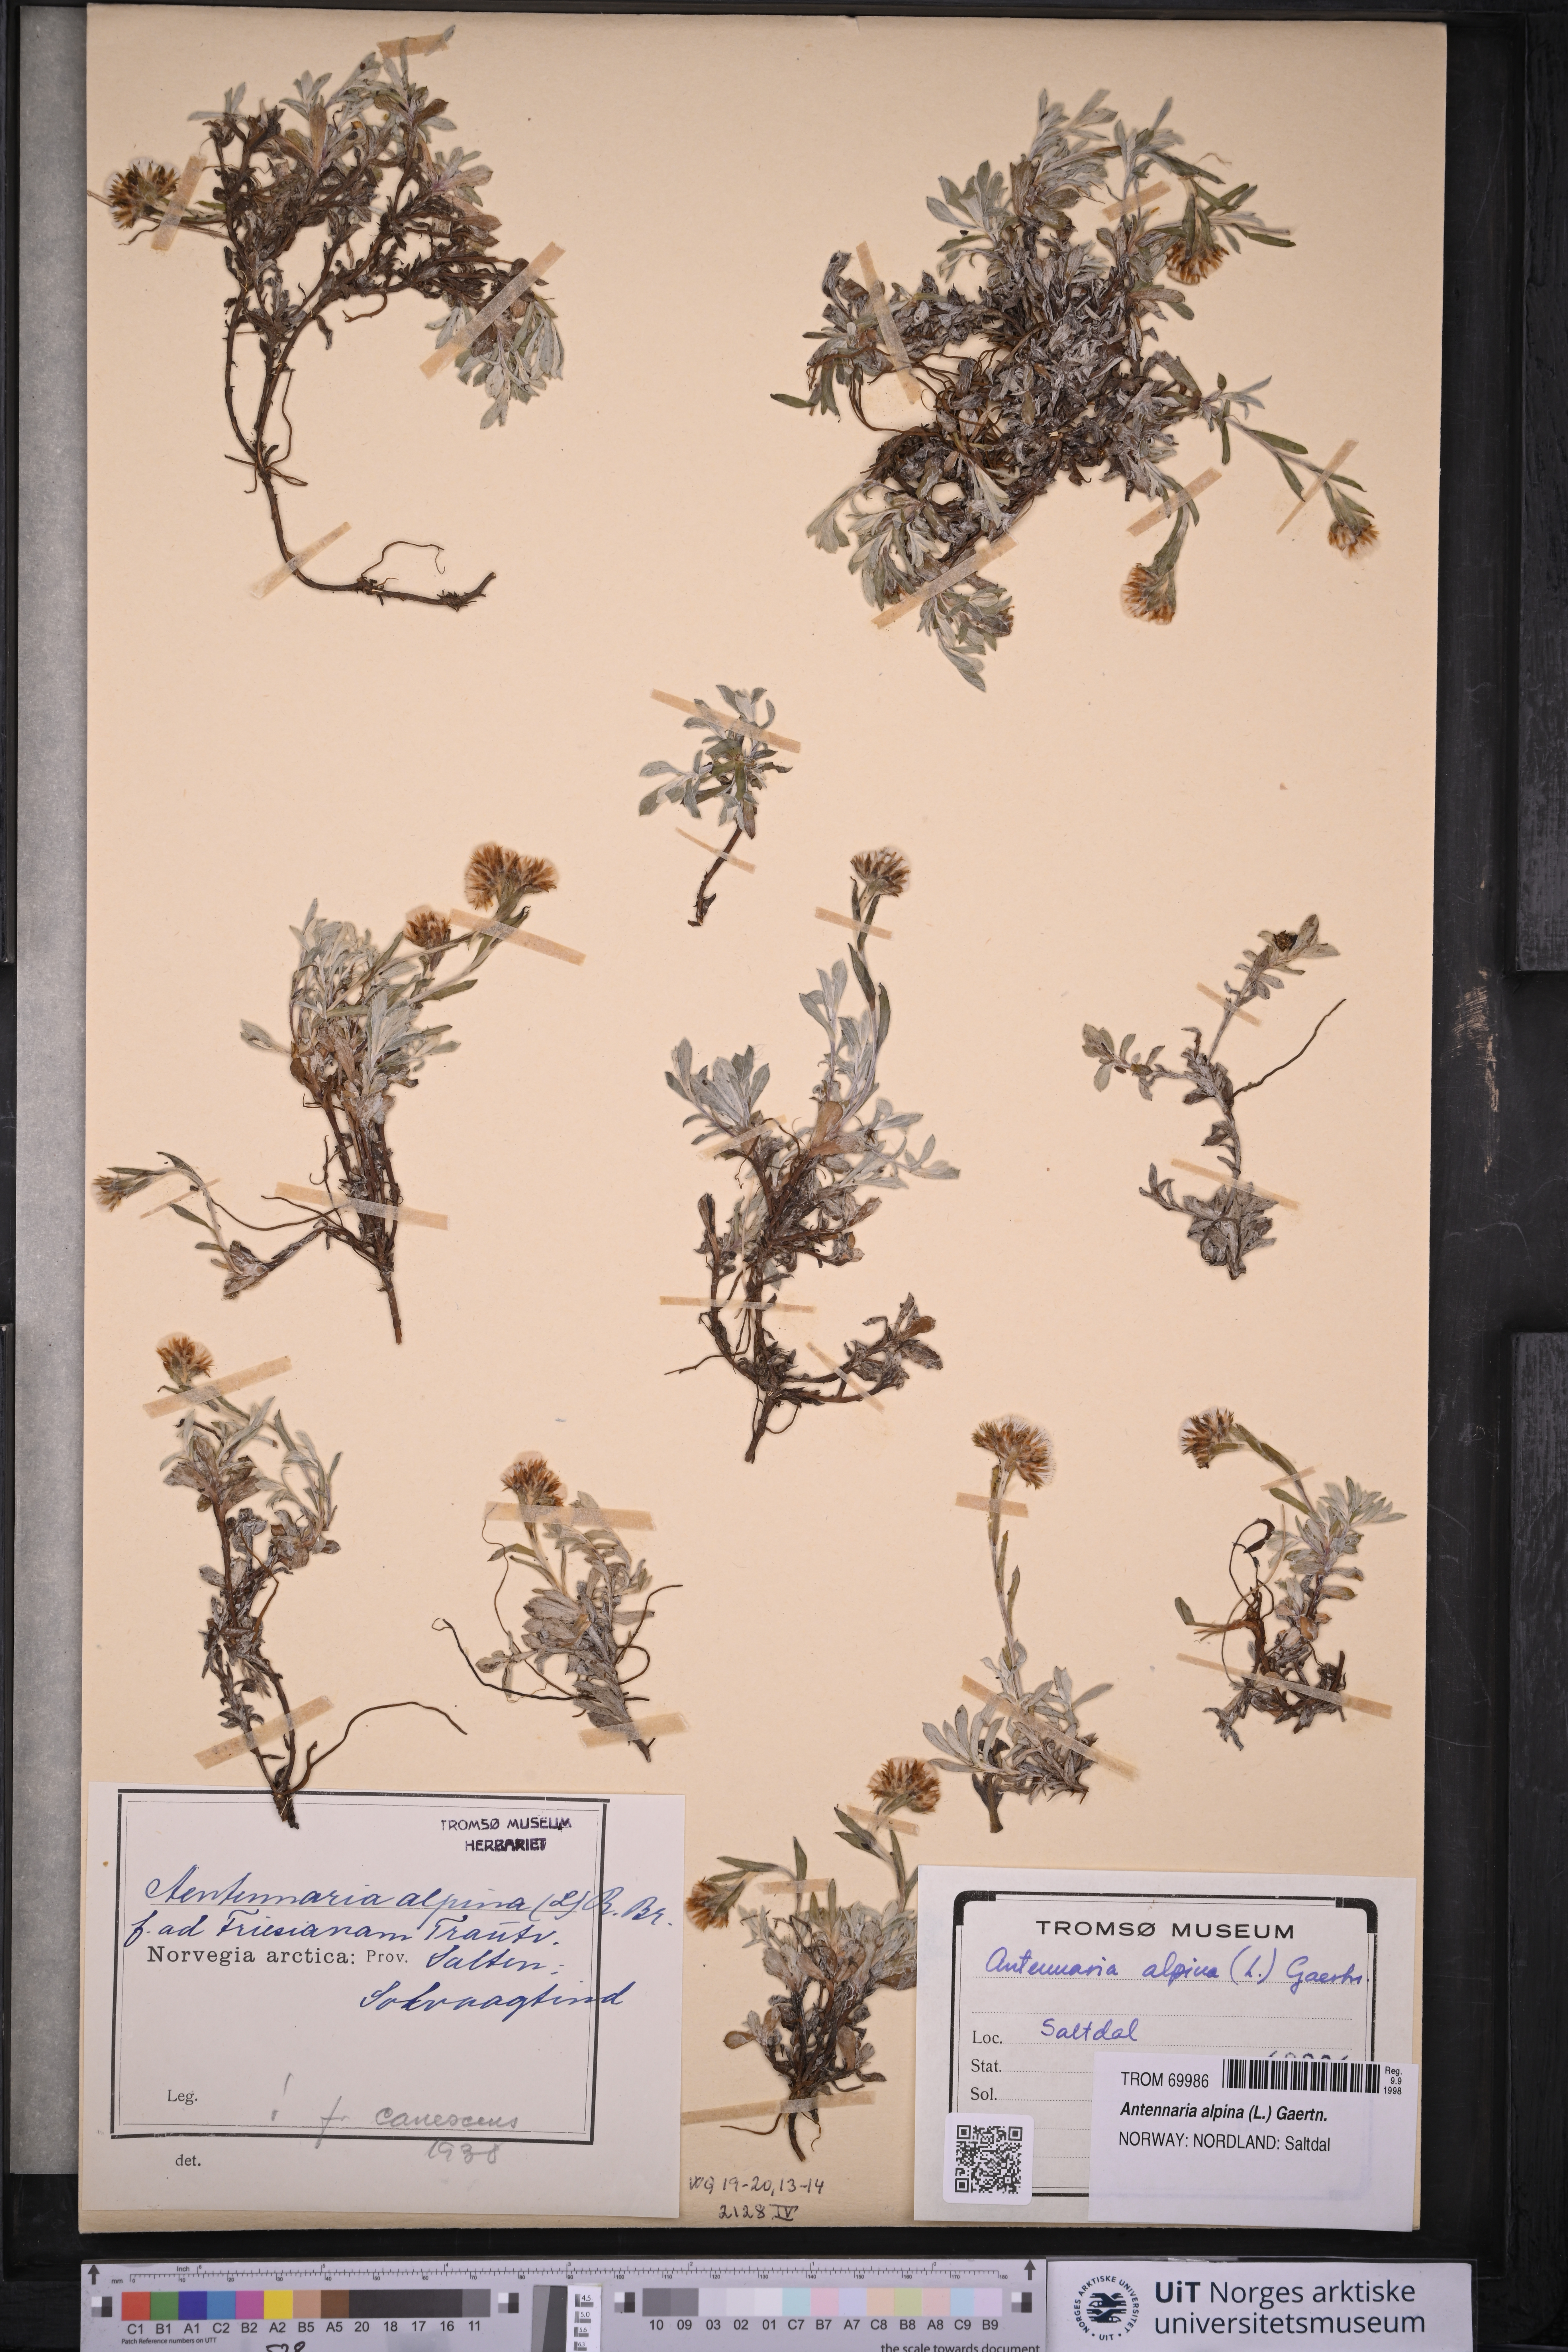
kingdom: Plantae
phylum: Tracheophyta
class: Magnoliopsida
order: Asterales
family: Asteraceae
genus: Antennaria
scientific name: Antennaria alpina
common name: Alpine pussytoes
